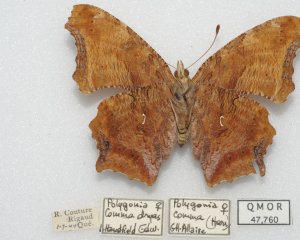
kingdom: Animalia
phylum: Arthropoda
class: Insecta
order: Lepidoptera
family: Nymphalidae
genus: Polygonia
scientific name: Polygonia comma
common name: Eastern Comma
